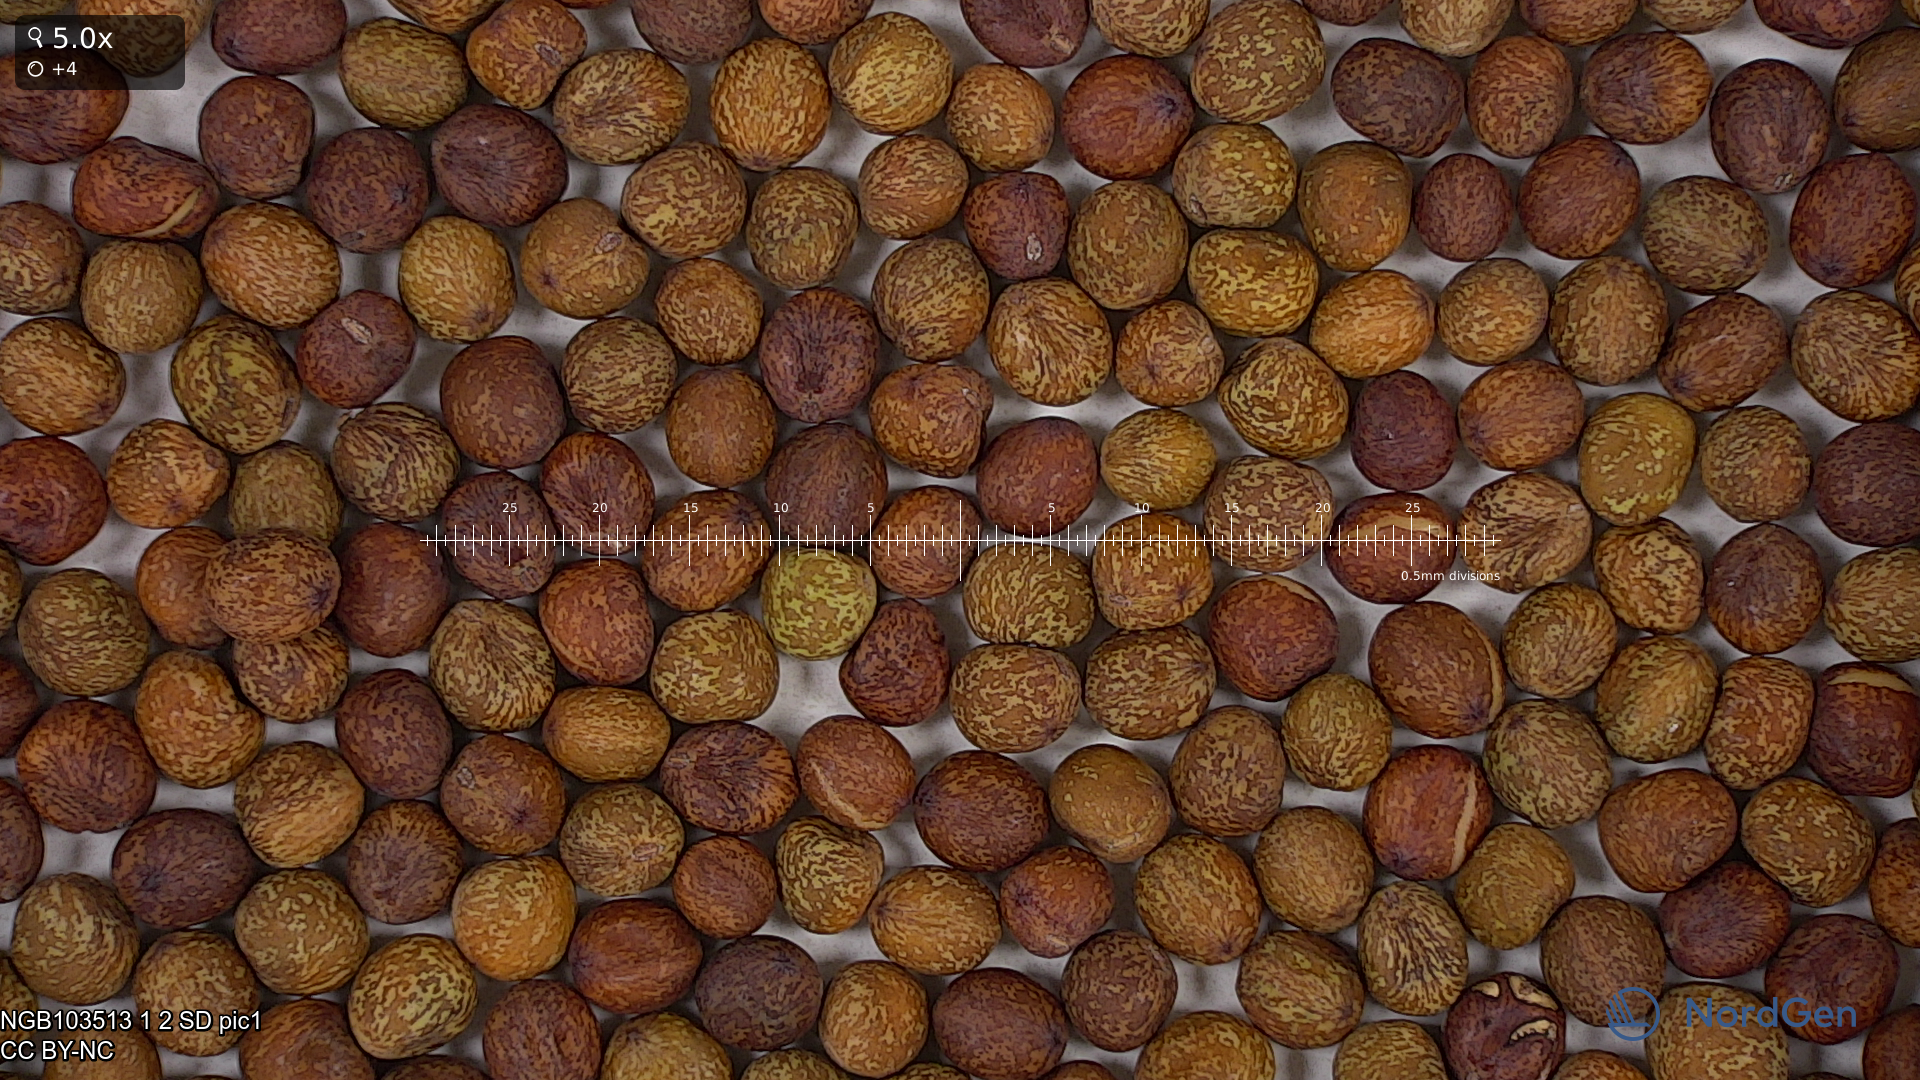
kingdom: Plantae
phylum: Tracheophyta
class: Magnoliopsida
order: Fabales
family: Fabaceae
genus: Lathyrus
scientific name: Lathyrus oleraceus
